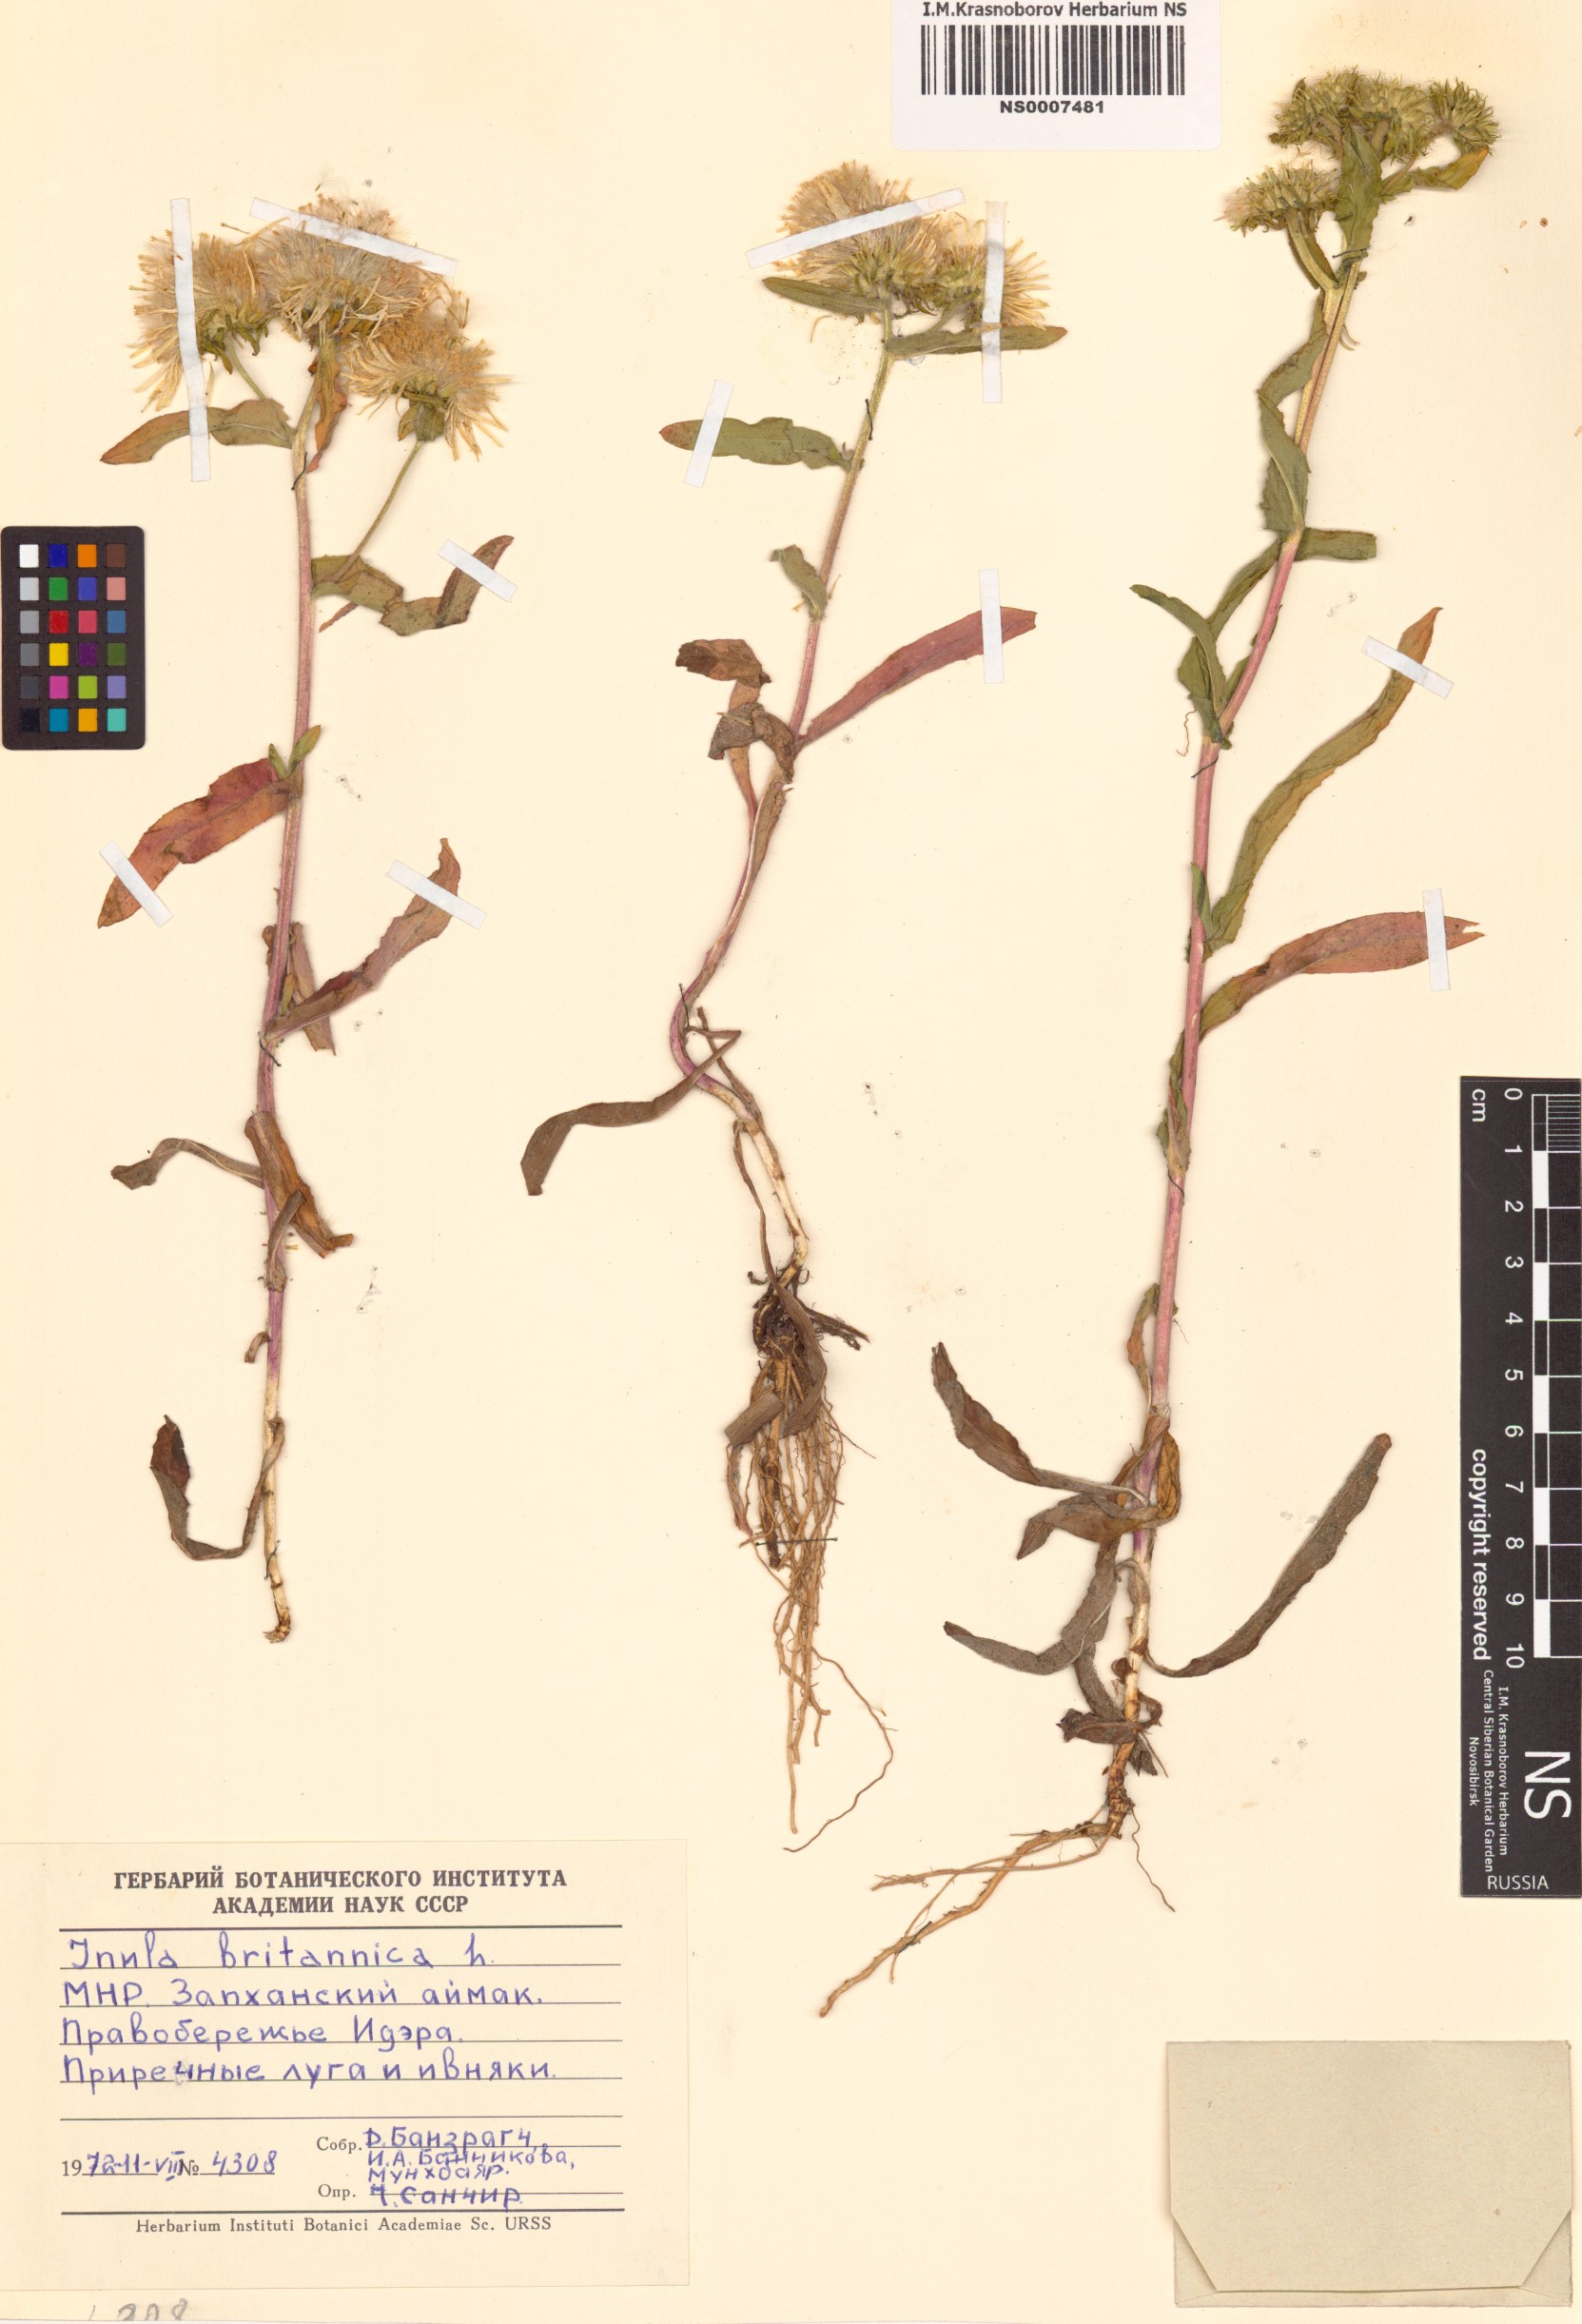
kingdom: Plantae
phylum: Tracheophyta
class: Magnoliopsida
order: Asterales
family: Asteraceae
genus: Pentanema
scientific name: Pentanema britannicum
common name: British elecampane
